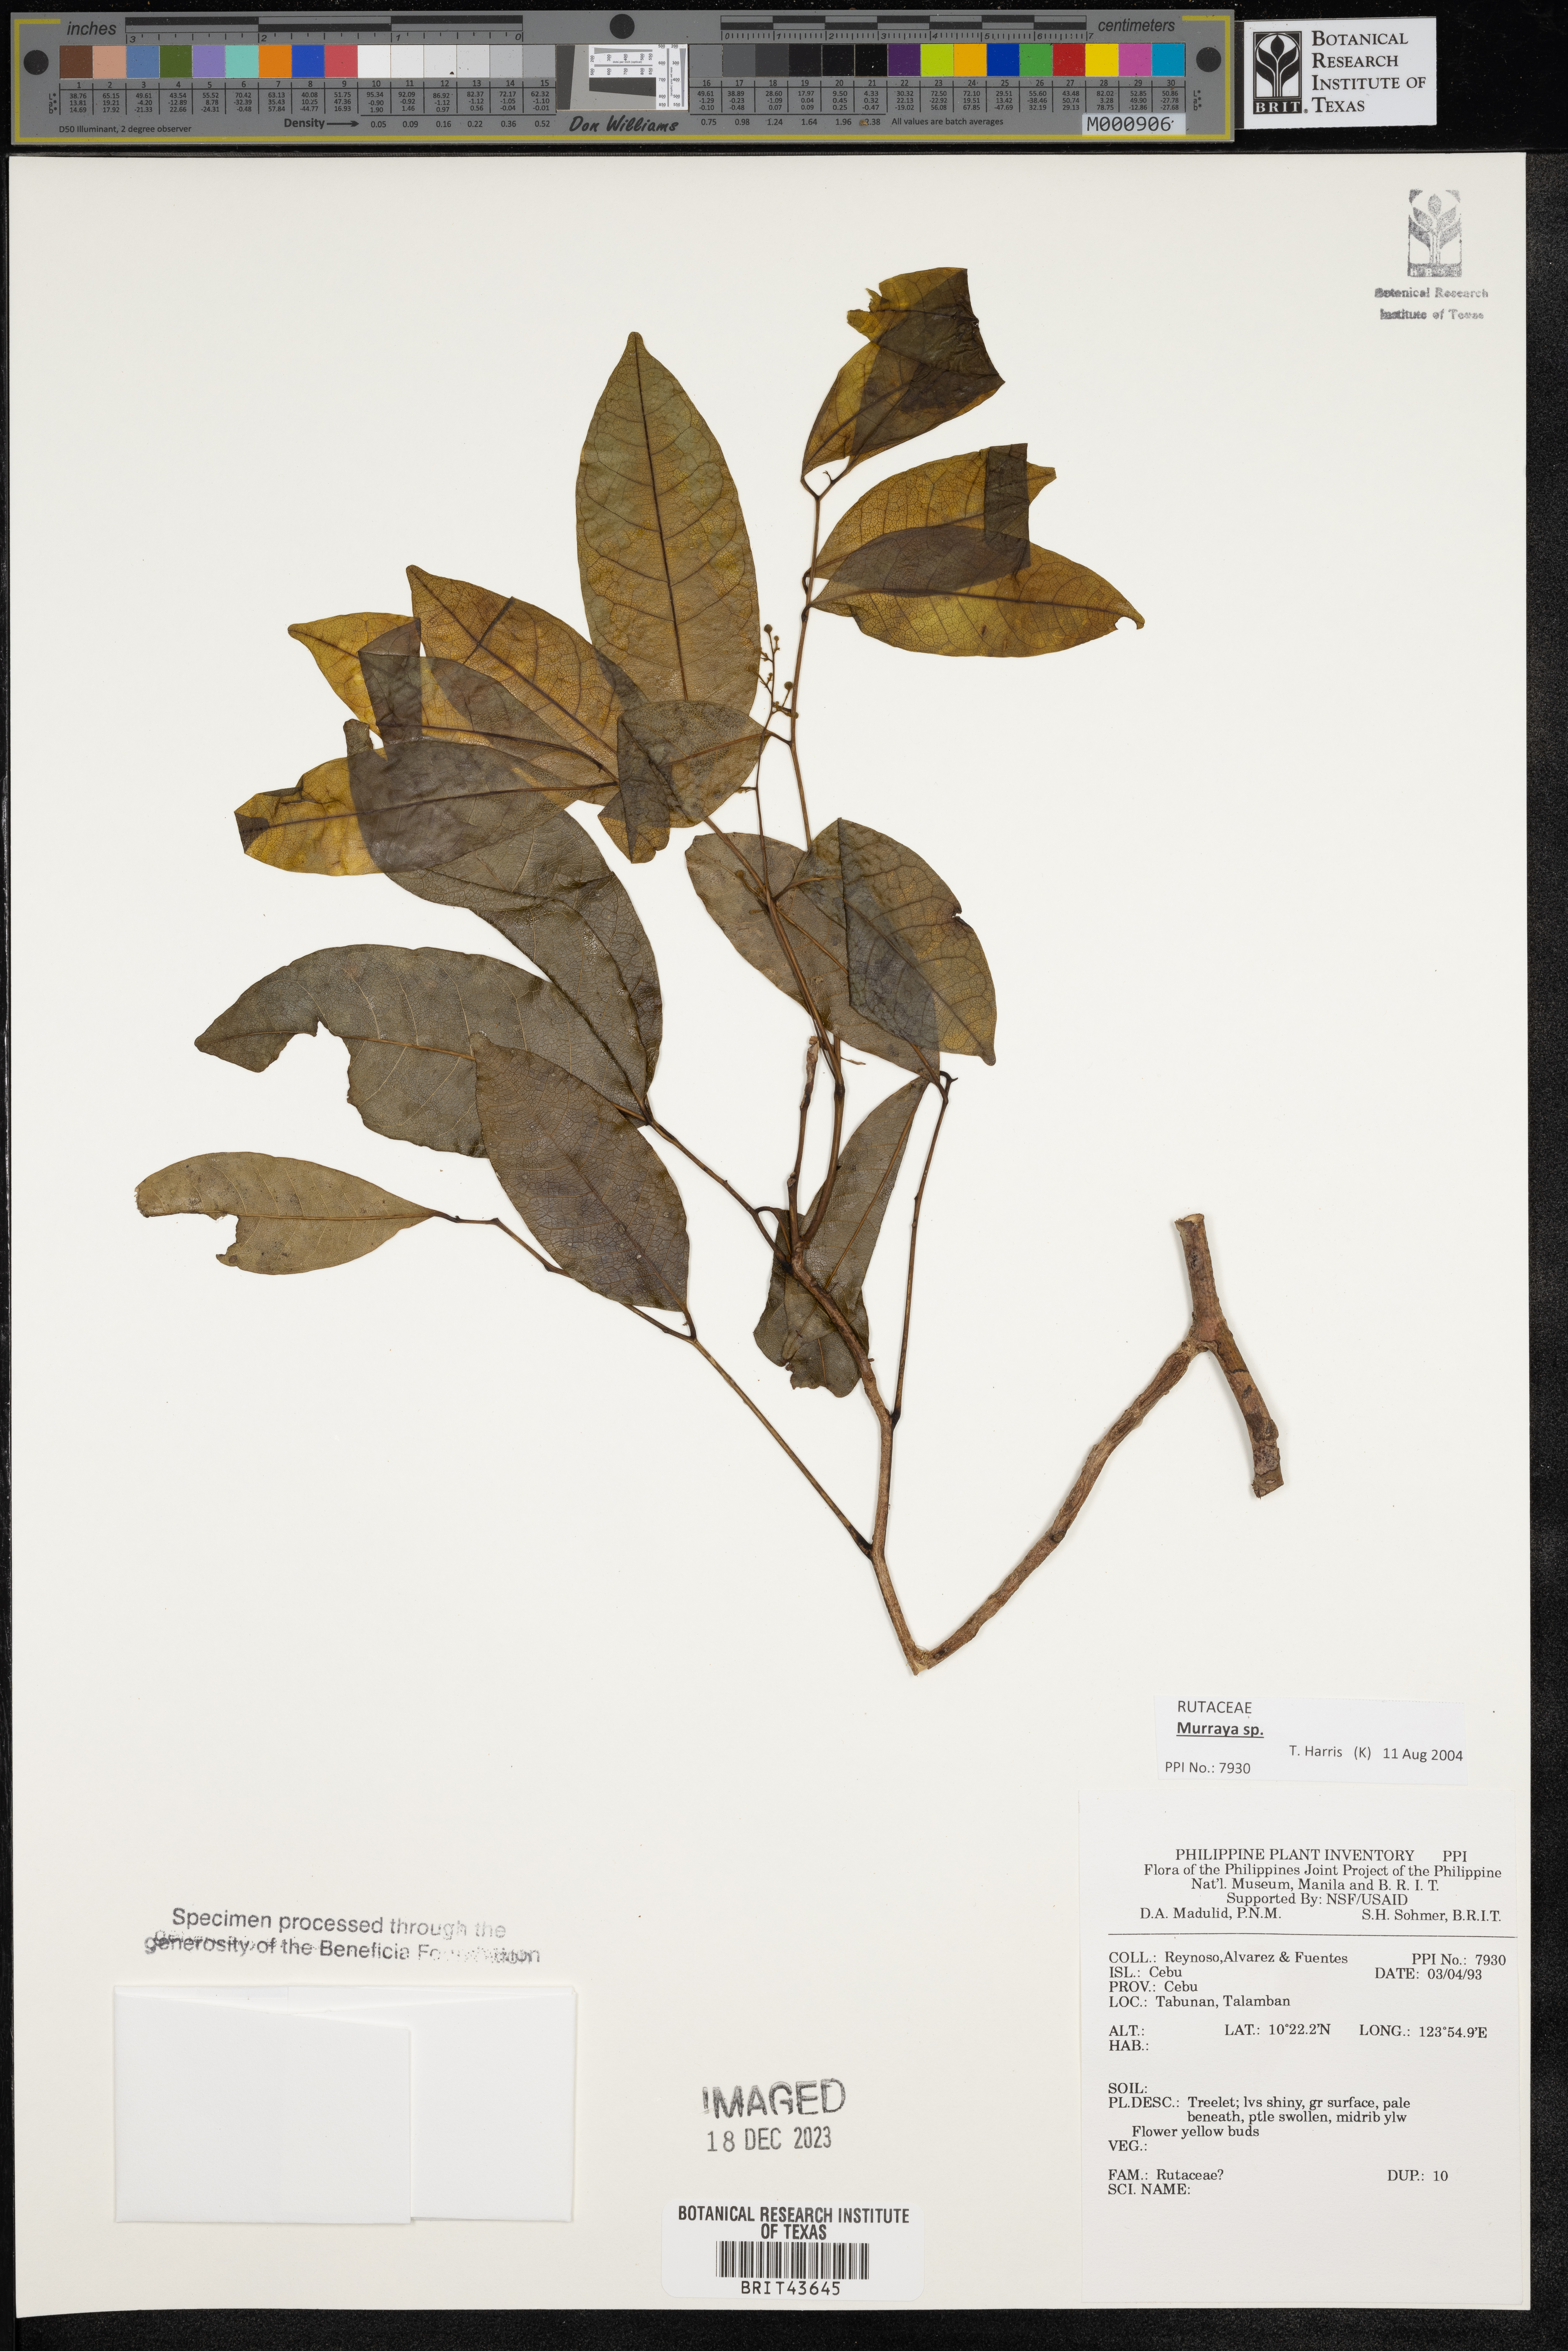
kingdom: Plantae
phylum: Tracheophyta
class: Magnoliopsida
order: Sapindales
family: Rutaceae
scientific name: Rutaceae
